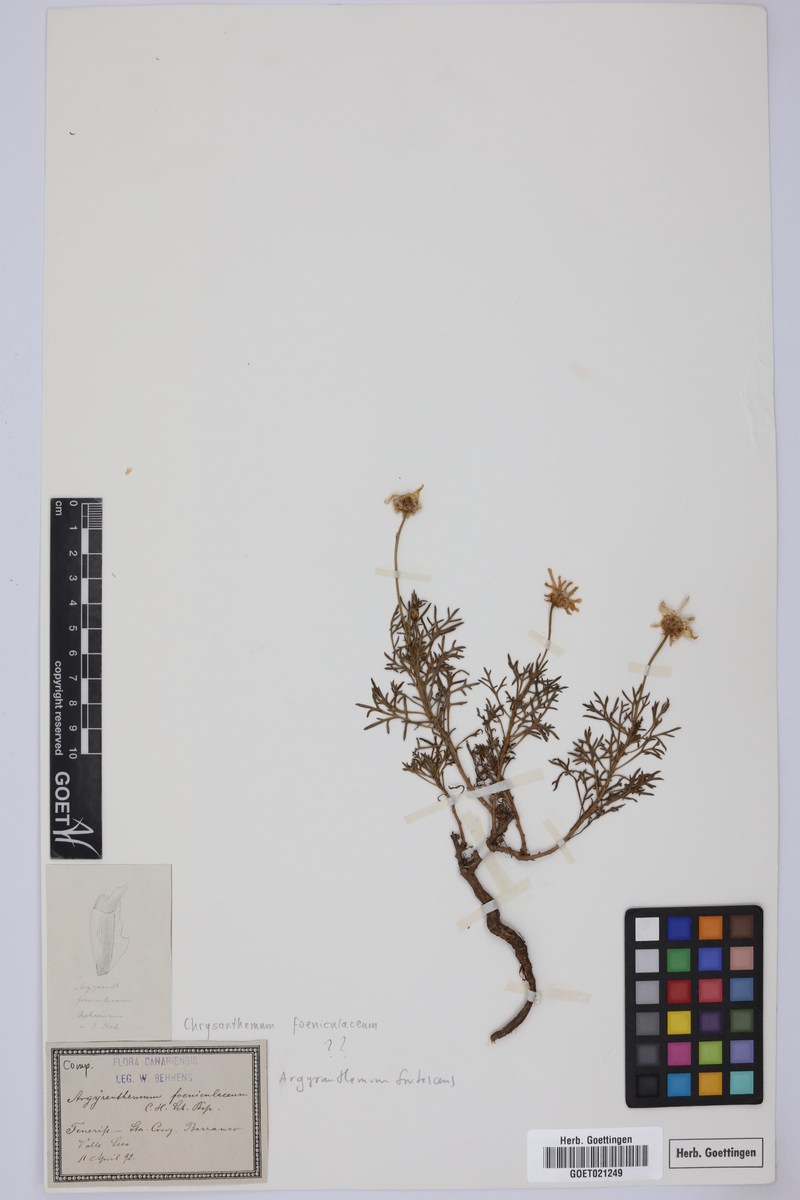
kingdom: Plantae
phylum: Tracheophyta
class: Magnoliopsida
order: Asterales
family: Asteraceae
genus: Argyranthemum
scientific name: Argyranthemum frutescens
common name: Paris daisy
